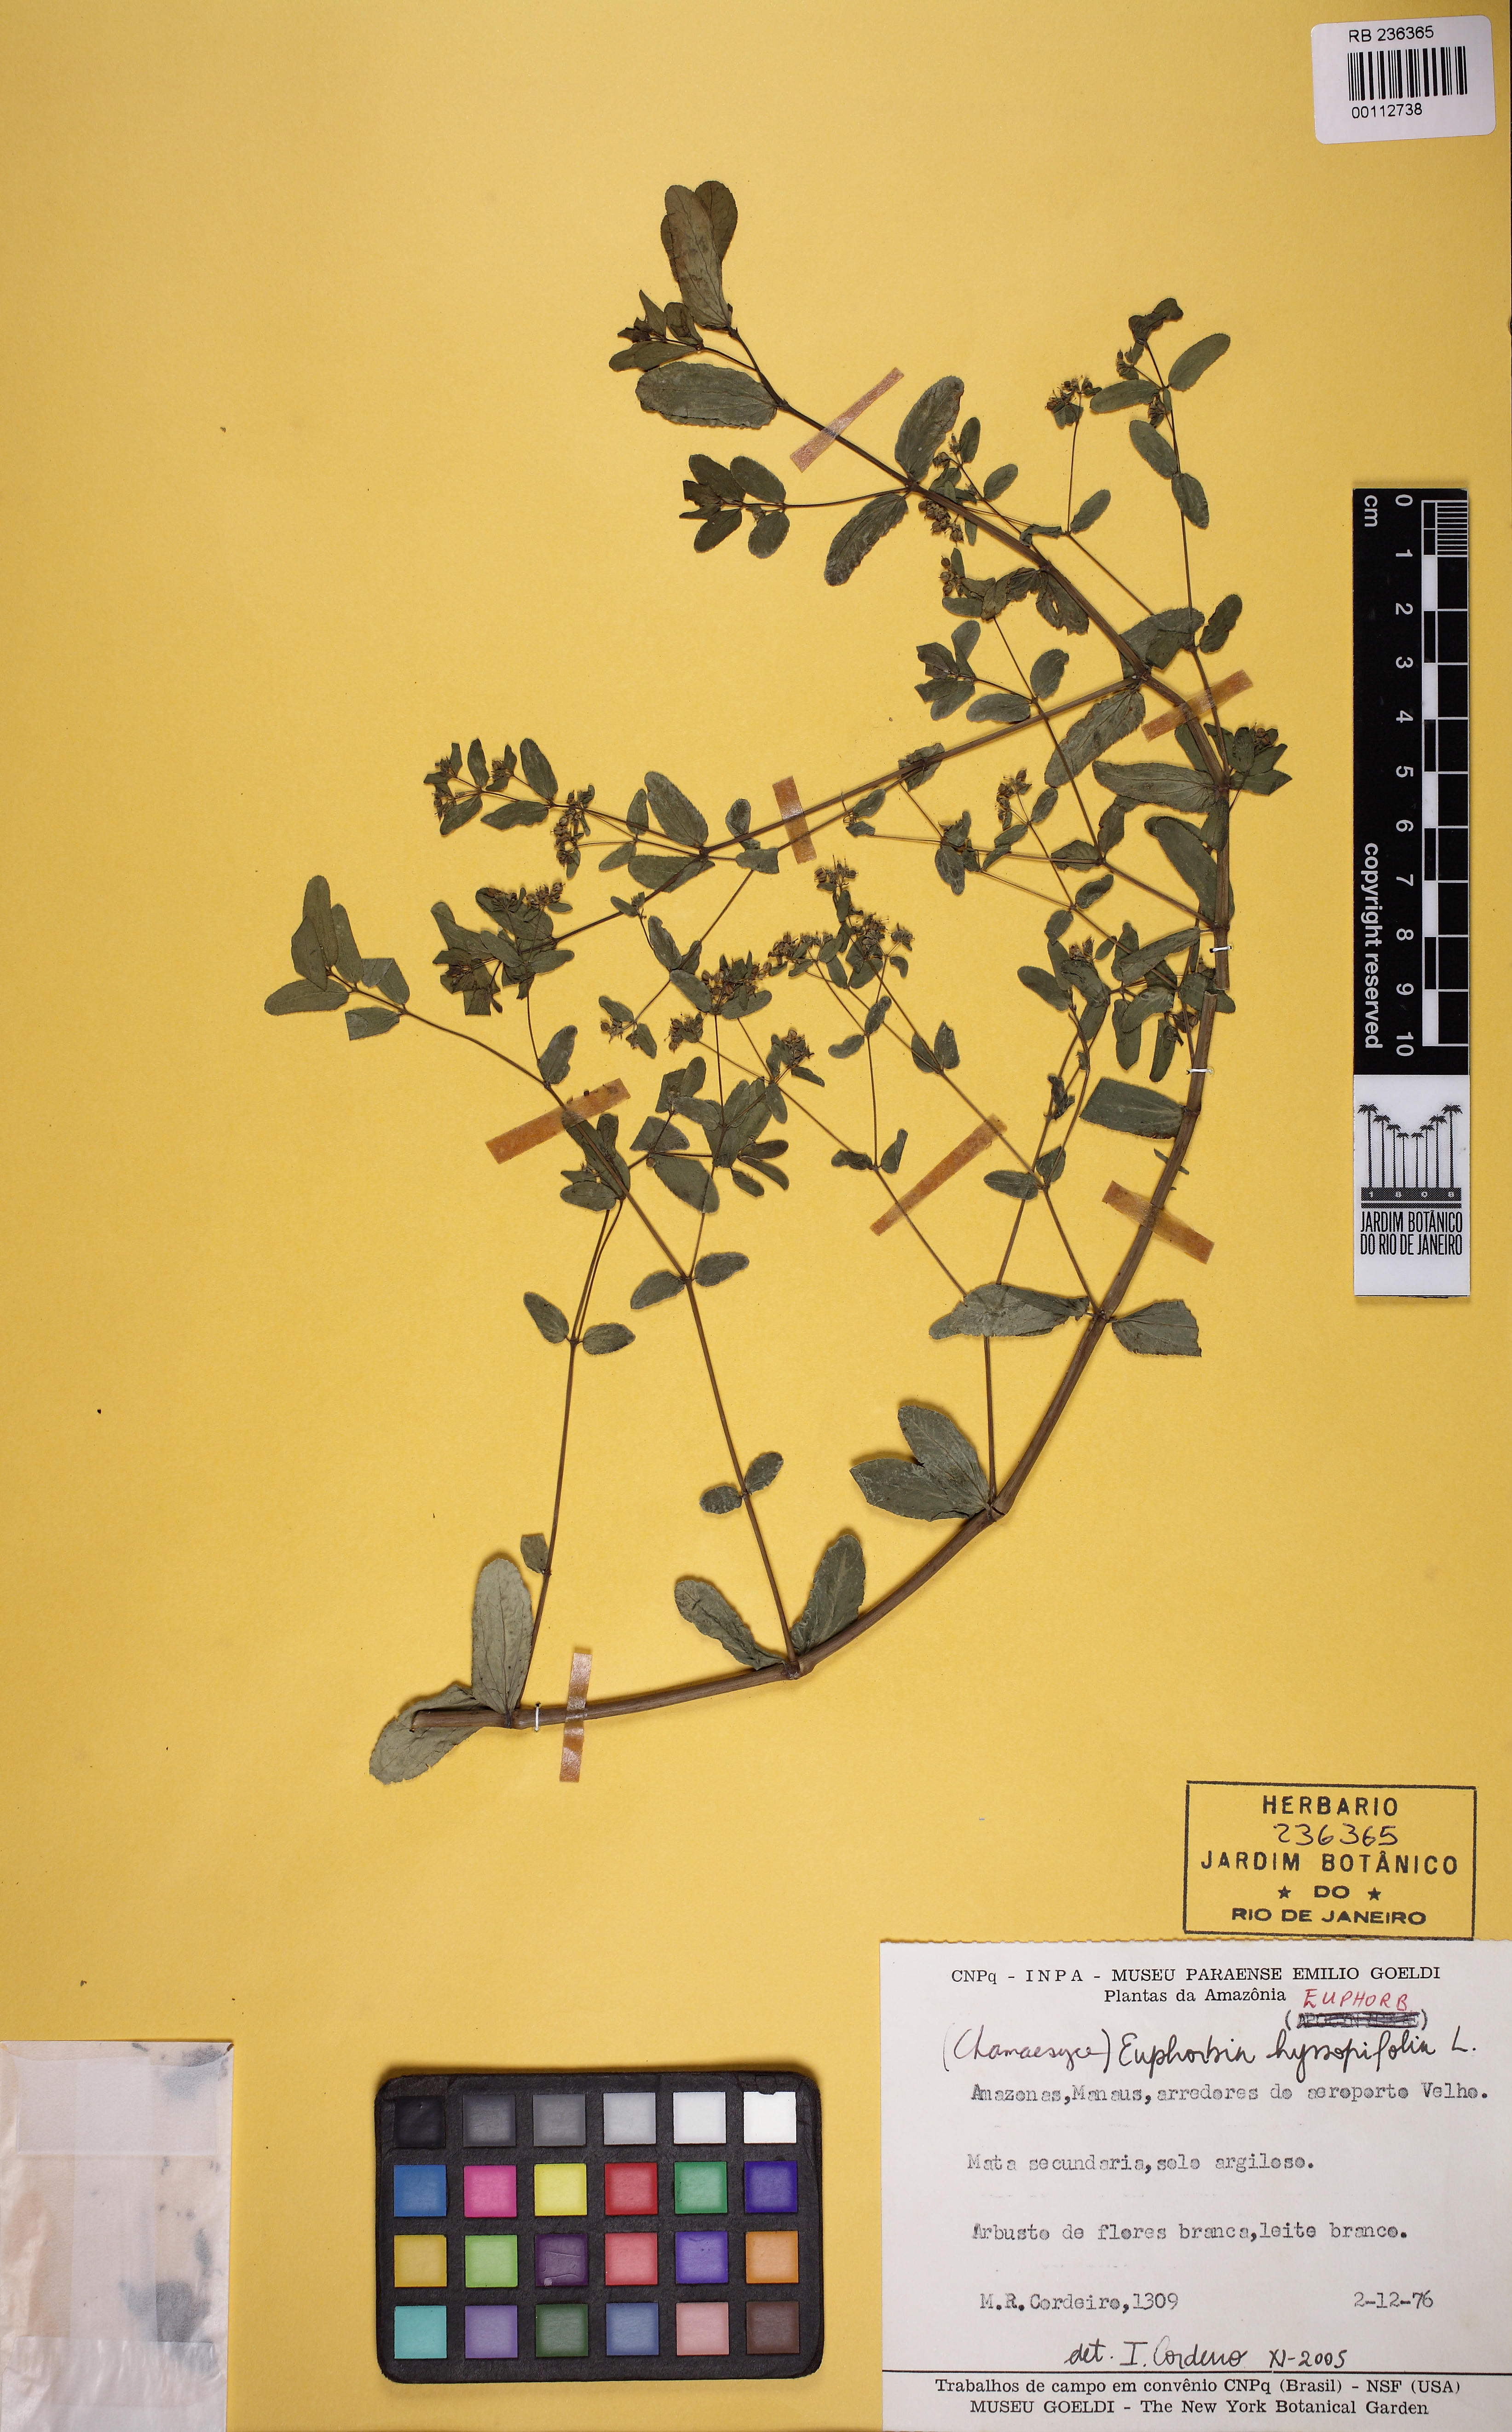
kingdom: Plantae
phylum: Tracheophyta
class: Magnoliopsida
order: Malpighiales
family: Euphorbiaceae
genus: Euphorbia
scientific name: Euphorbia hyssopifolia
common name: Hyssopleaf sandmat
